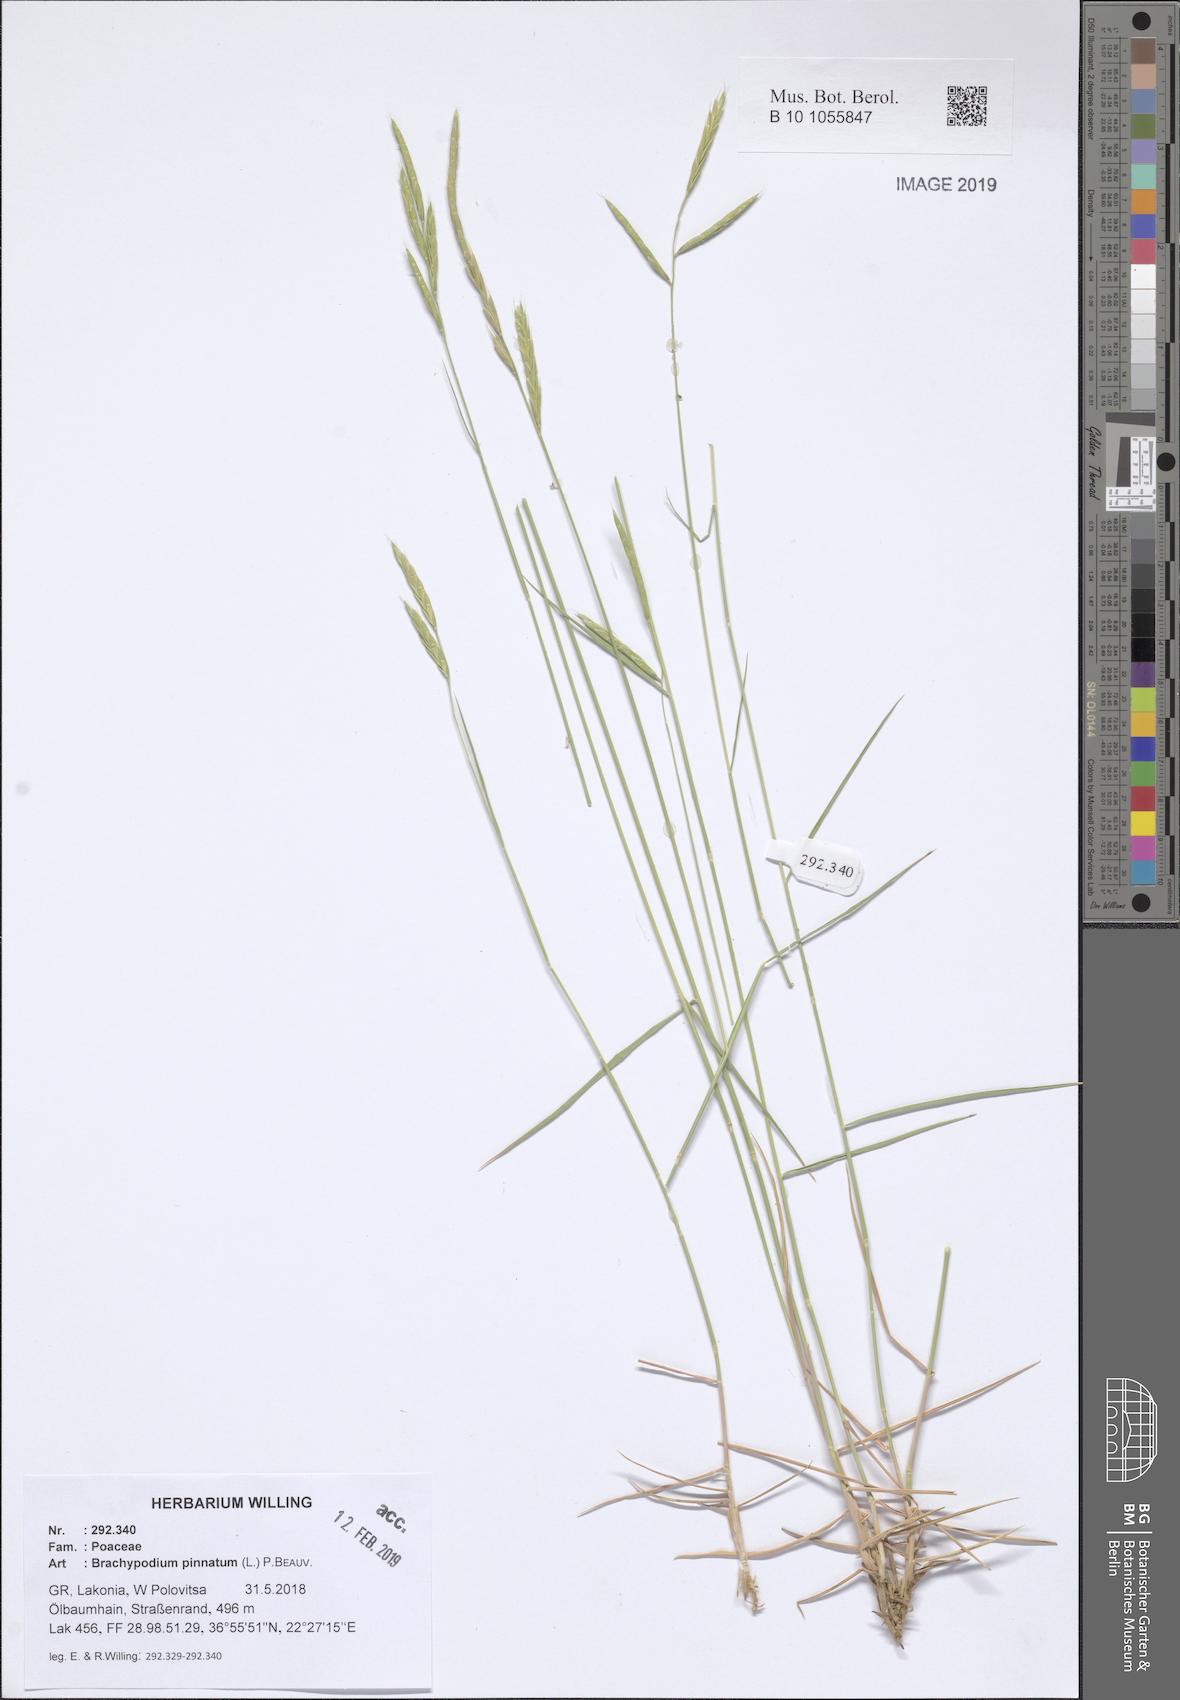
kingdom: Plantae
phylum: Tracheophyta
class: Liliopsida
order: Poales
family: Poaceae
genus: Brachypodium
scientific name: Brachypodium pinnatum
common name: Tor grass
